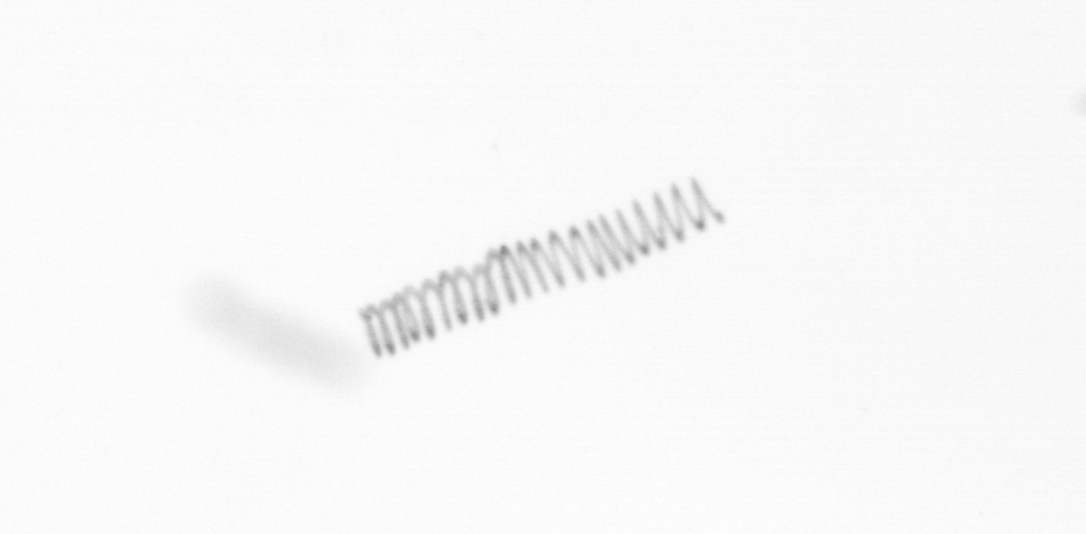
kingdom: Chromista
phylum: Ochrophyta
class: Bacillariophyceae
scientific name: Bacillariophyceae
